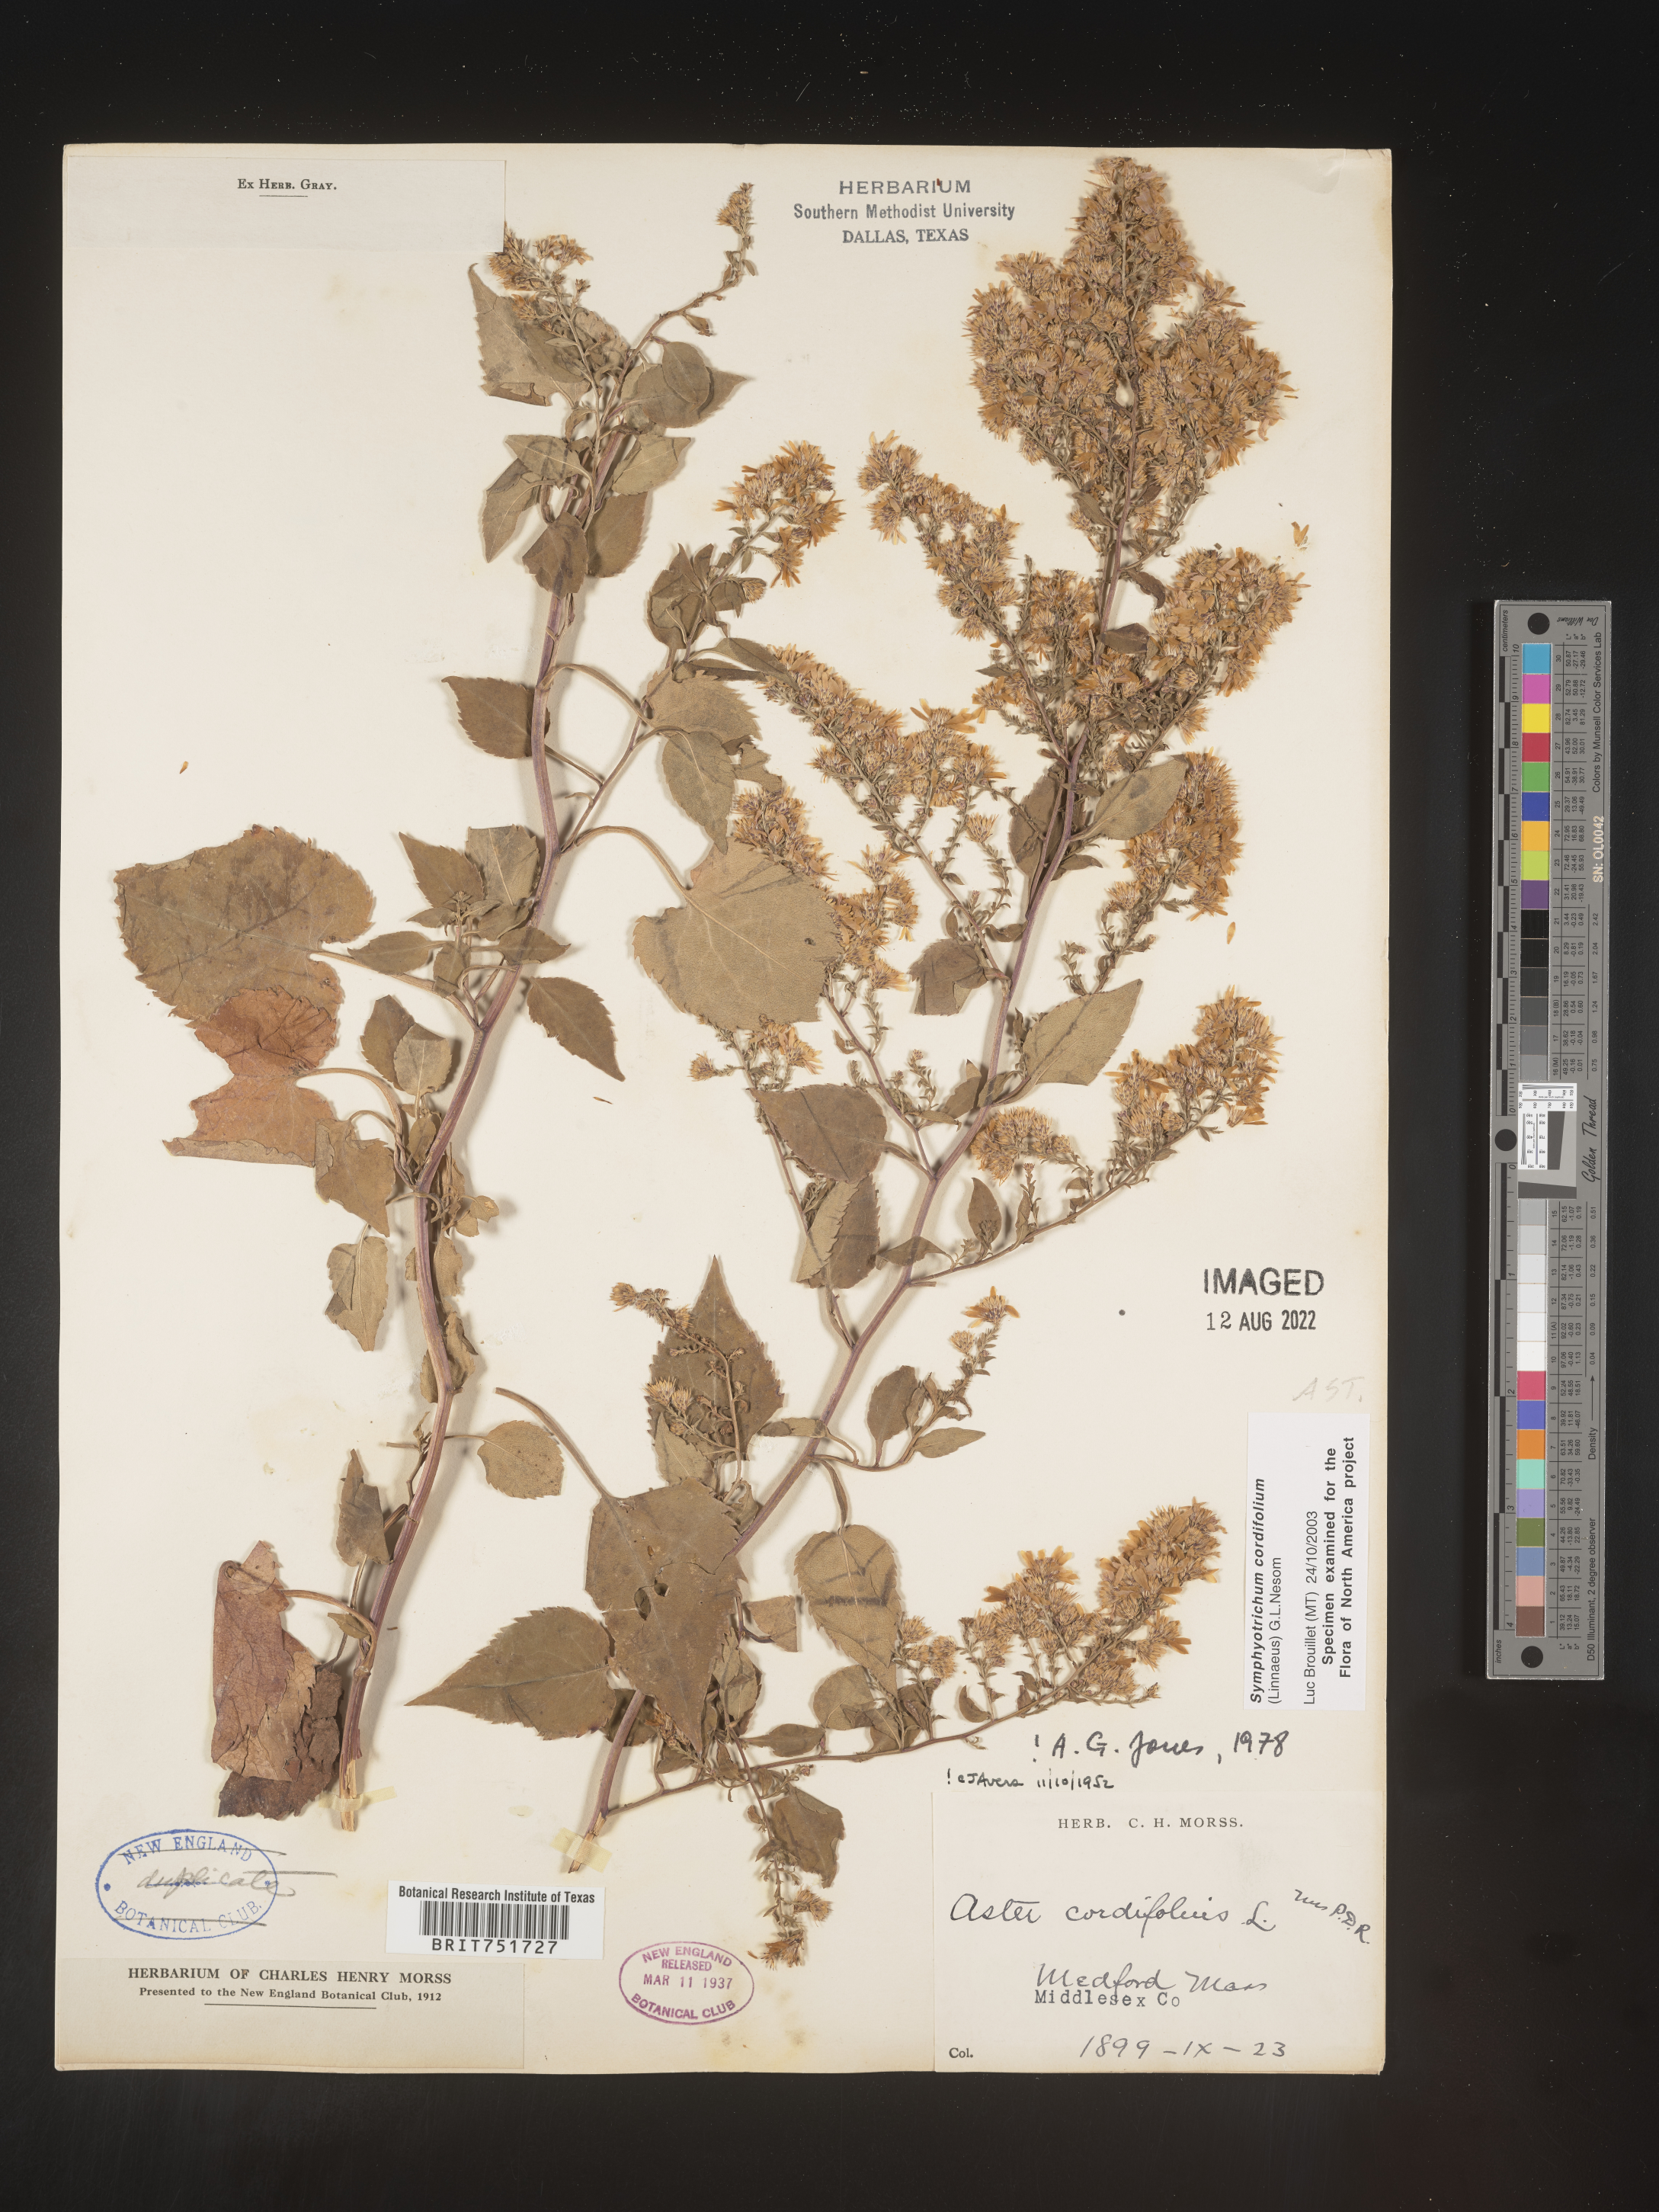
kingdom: Plantae
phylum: Tracheophyta
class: Magnoliopsida
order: Asterales
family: Asteraceae
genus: Symphyotrichum
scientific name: Symphyotrichum cordifolium
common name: Beeweed
